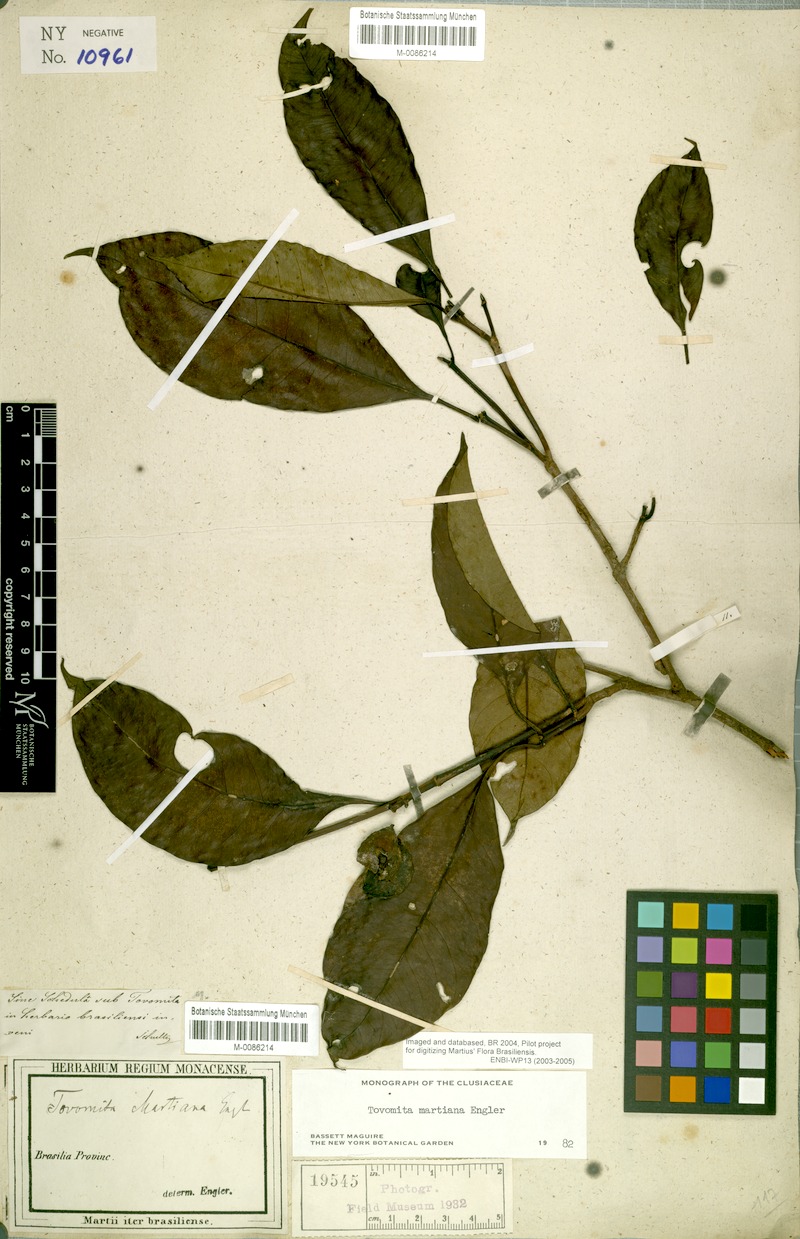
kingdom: Plantae
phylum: Tracheophyta
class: Magnoliopsida
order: Malpighiales
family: Clusiaceae
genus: Tovomita
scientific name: Tovomita martiana
